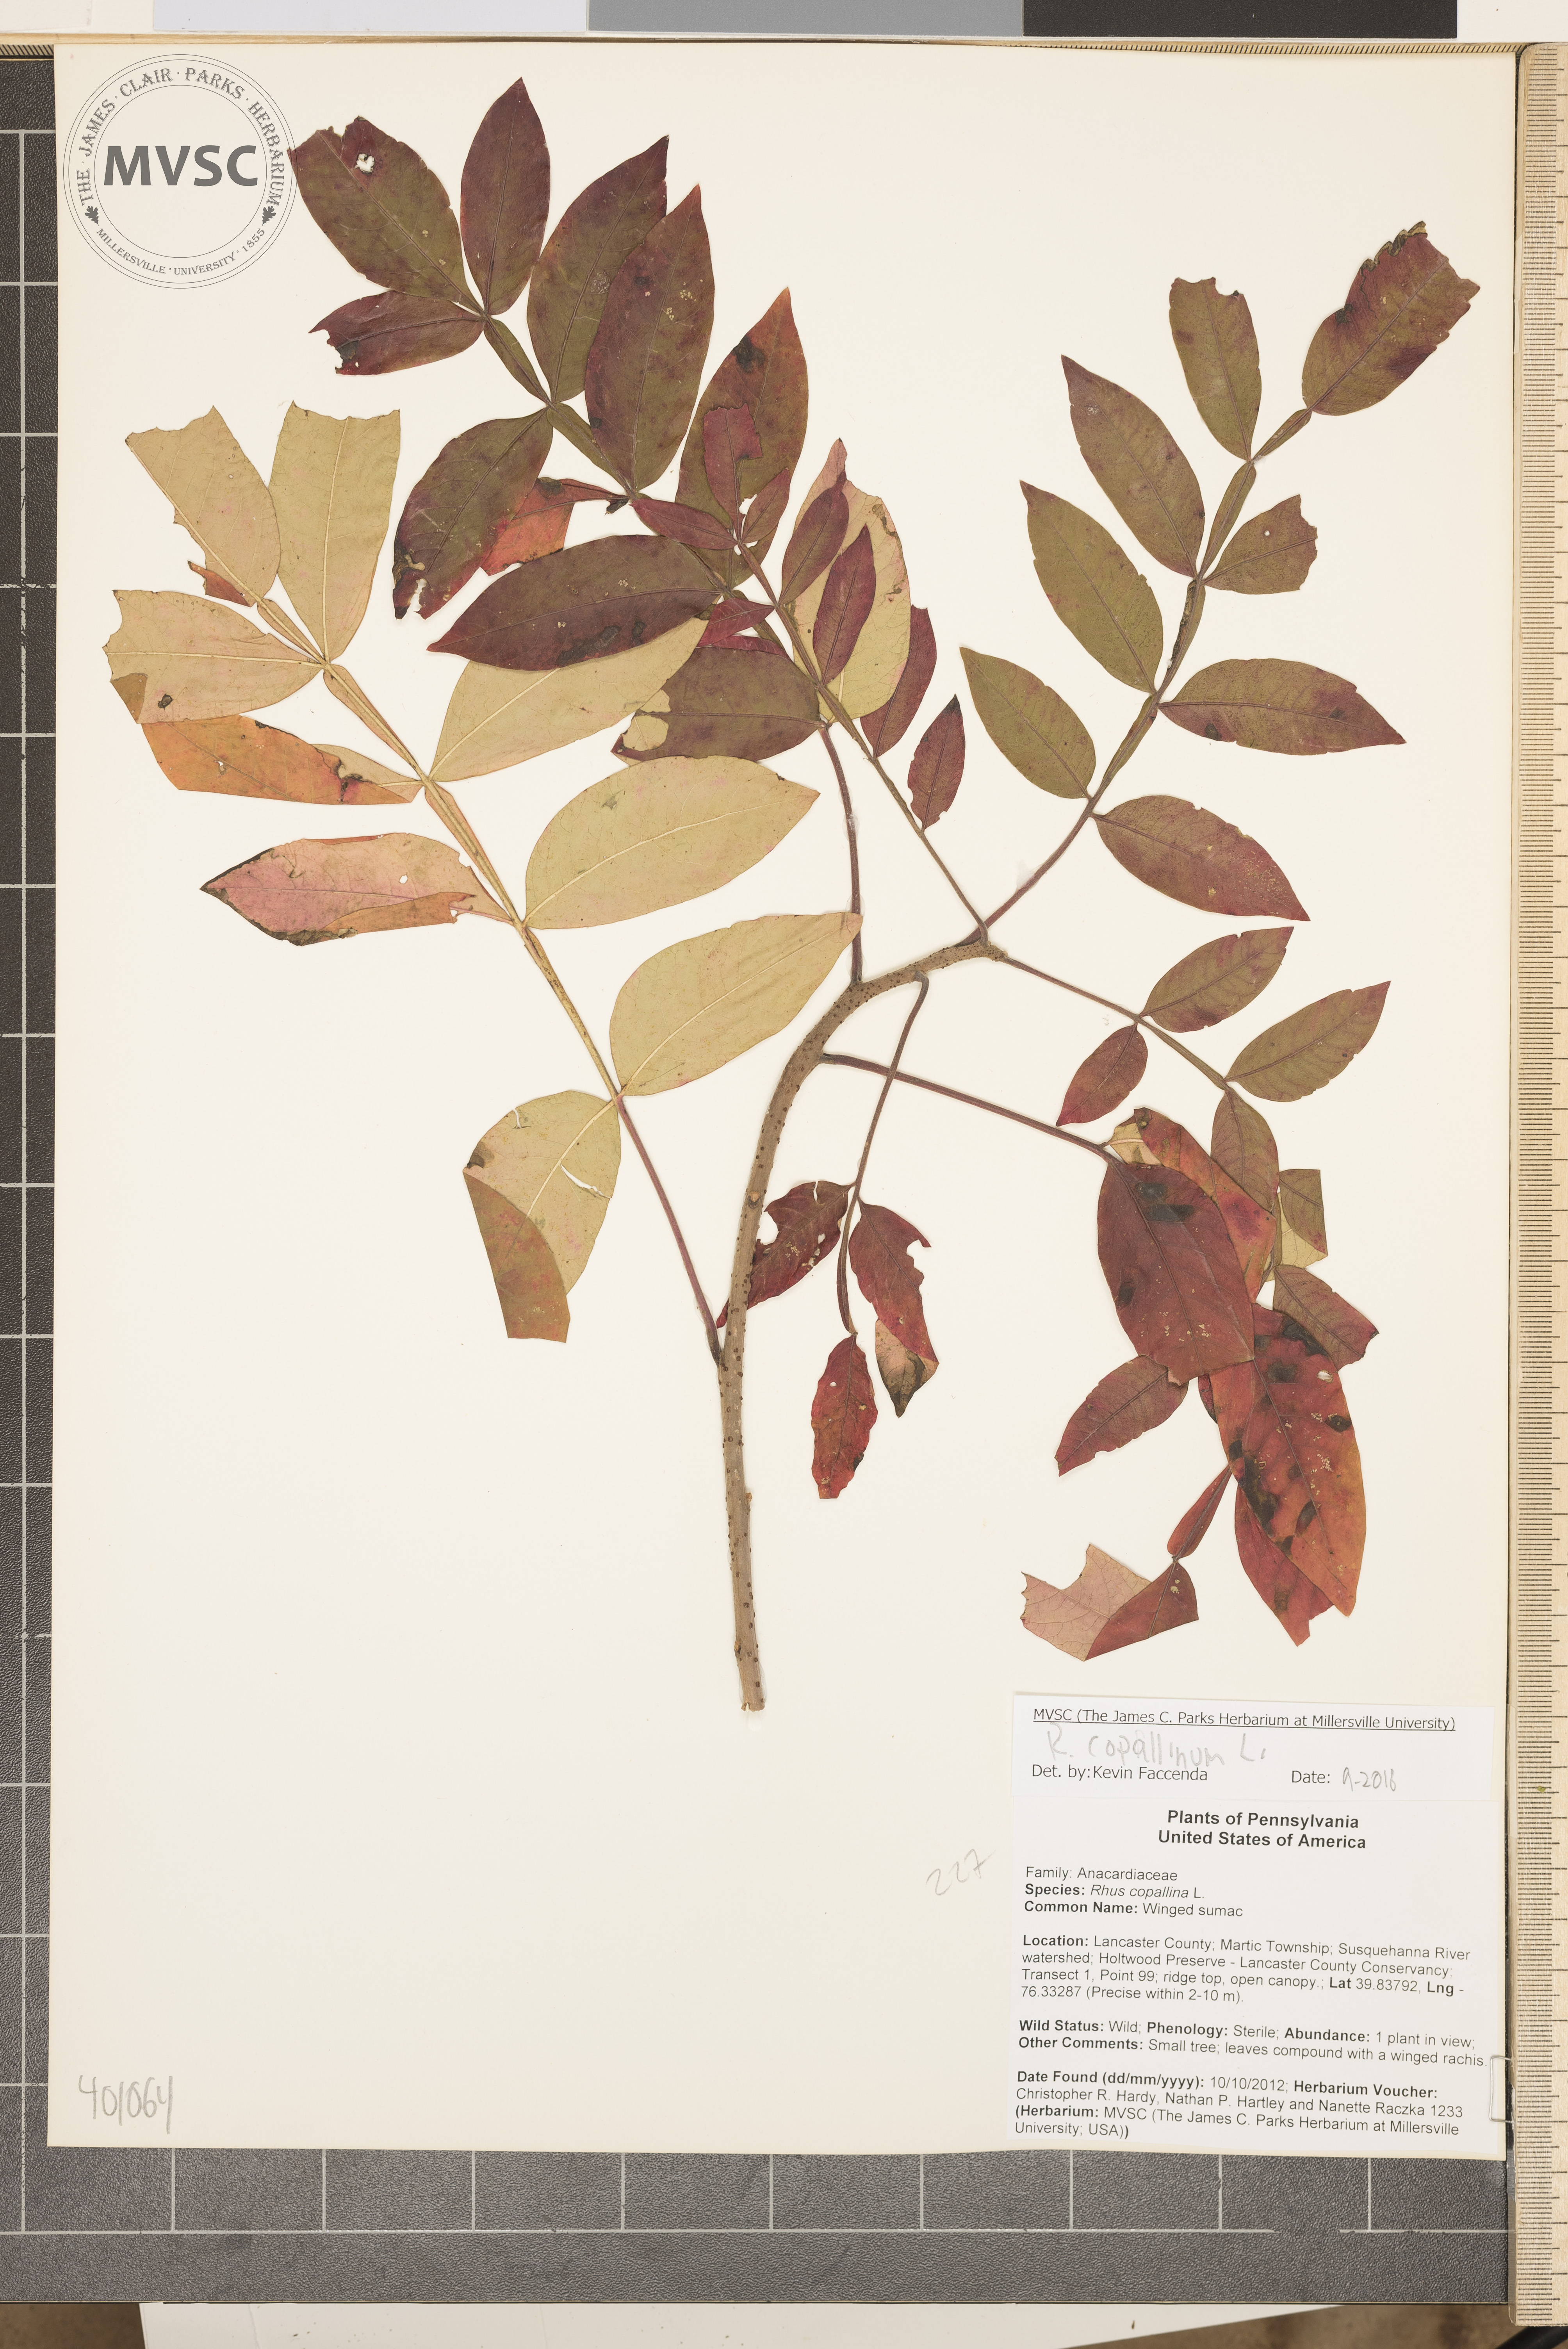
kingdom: Plantae
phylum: Tracheophyta
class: Magnoliopsida
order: Sapindales
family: Anacardiaceae
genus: Rhus
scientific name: Rhus copallina
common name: Winged sumac
